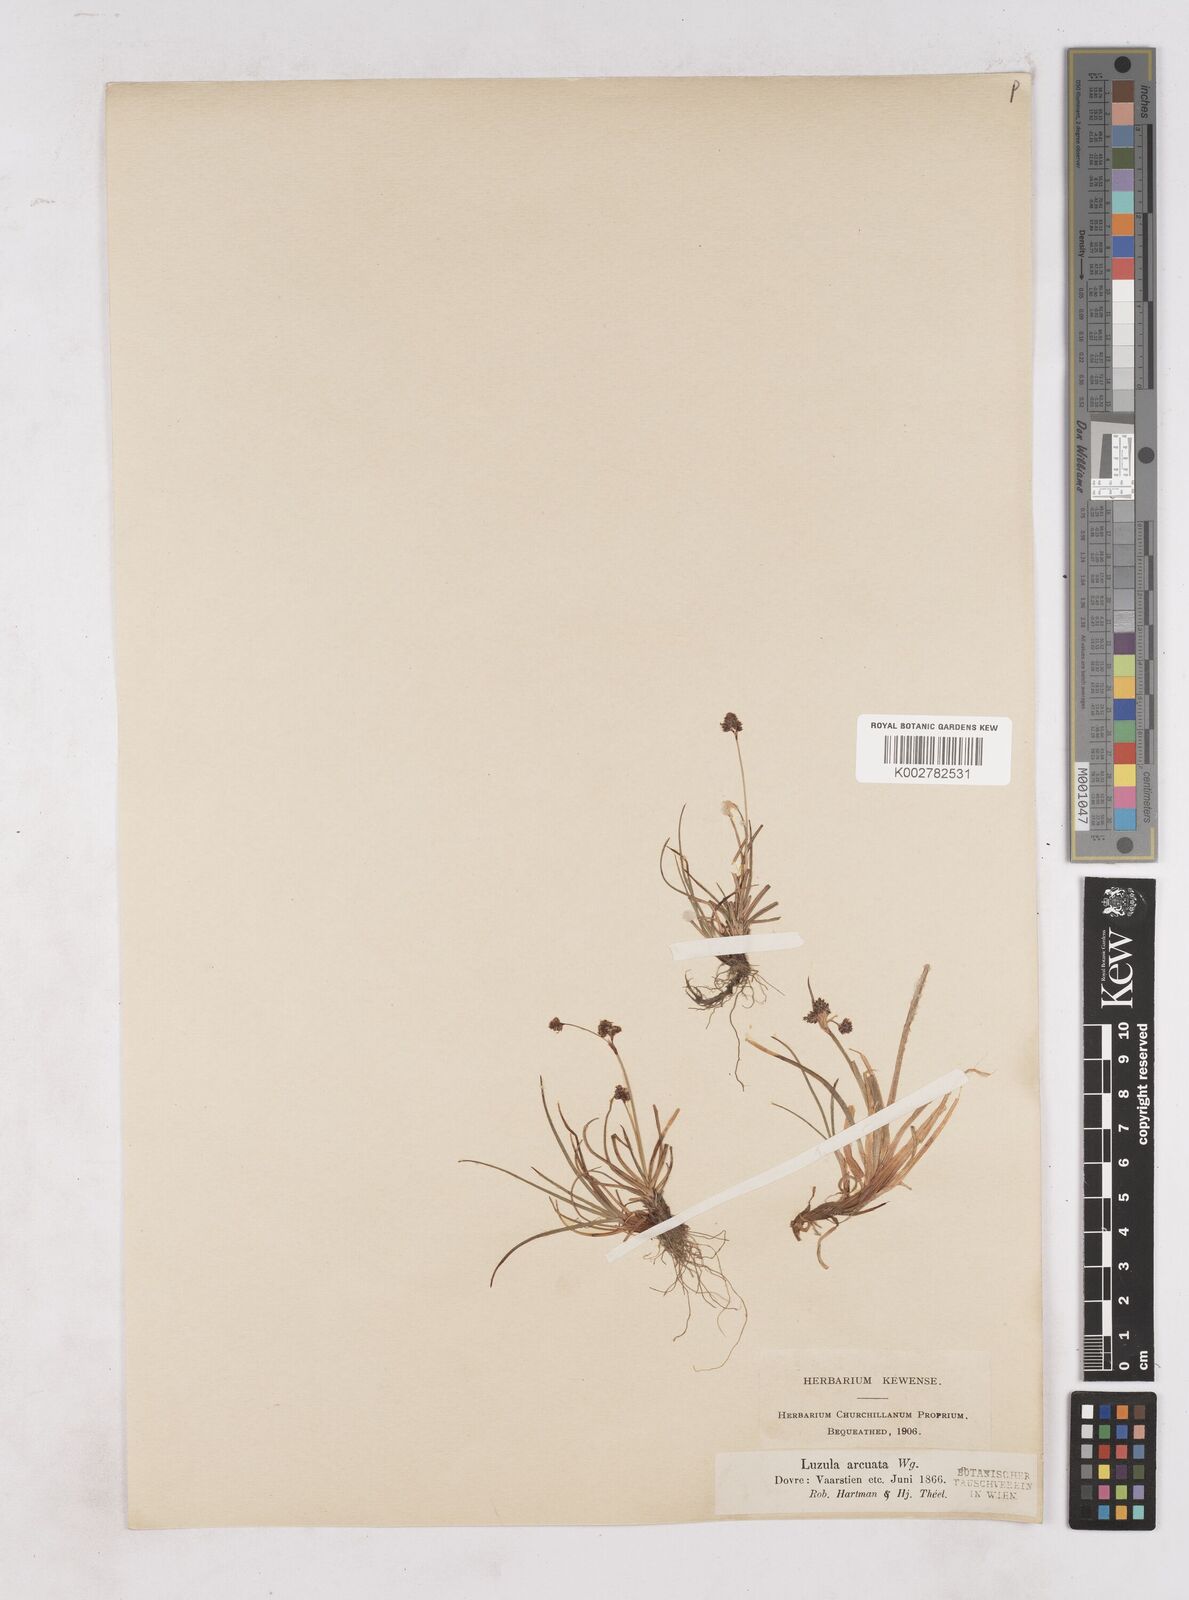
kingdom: Plantae
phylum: Tracheophyta
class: Liliopsida
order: Poales
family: Juncaceae
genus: Luzula
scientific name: Luzula arcuata
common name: Curved wood-rush
